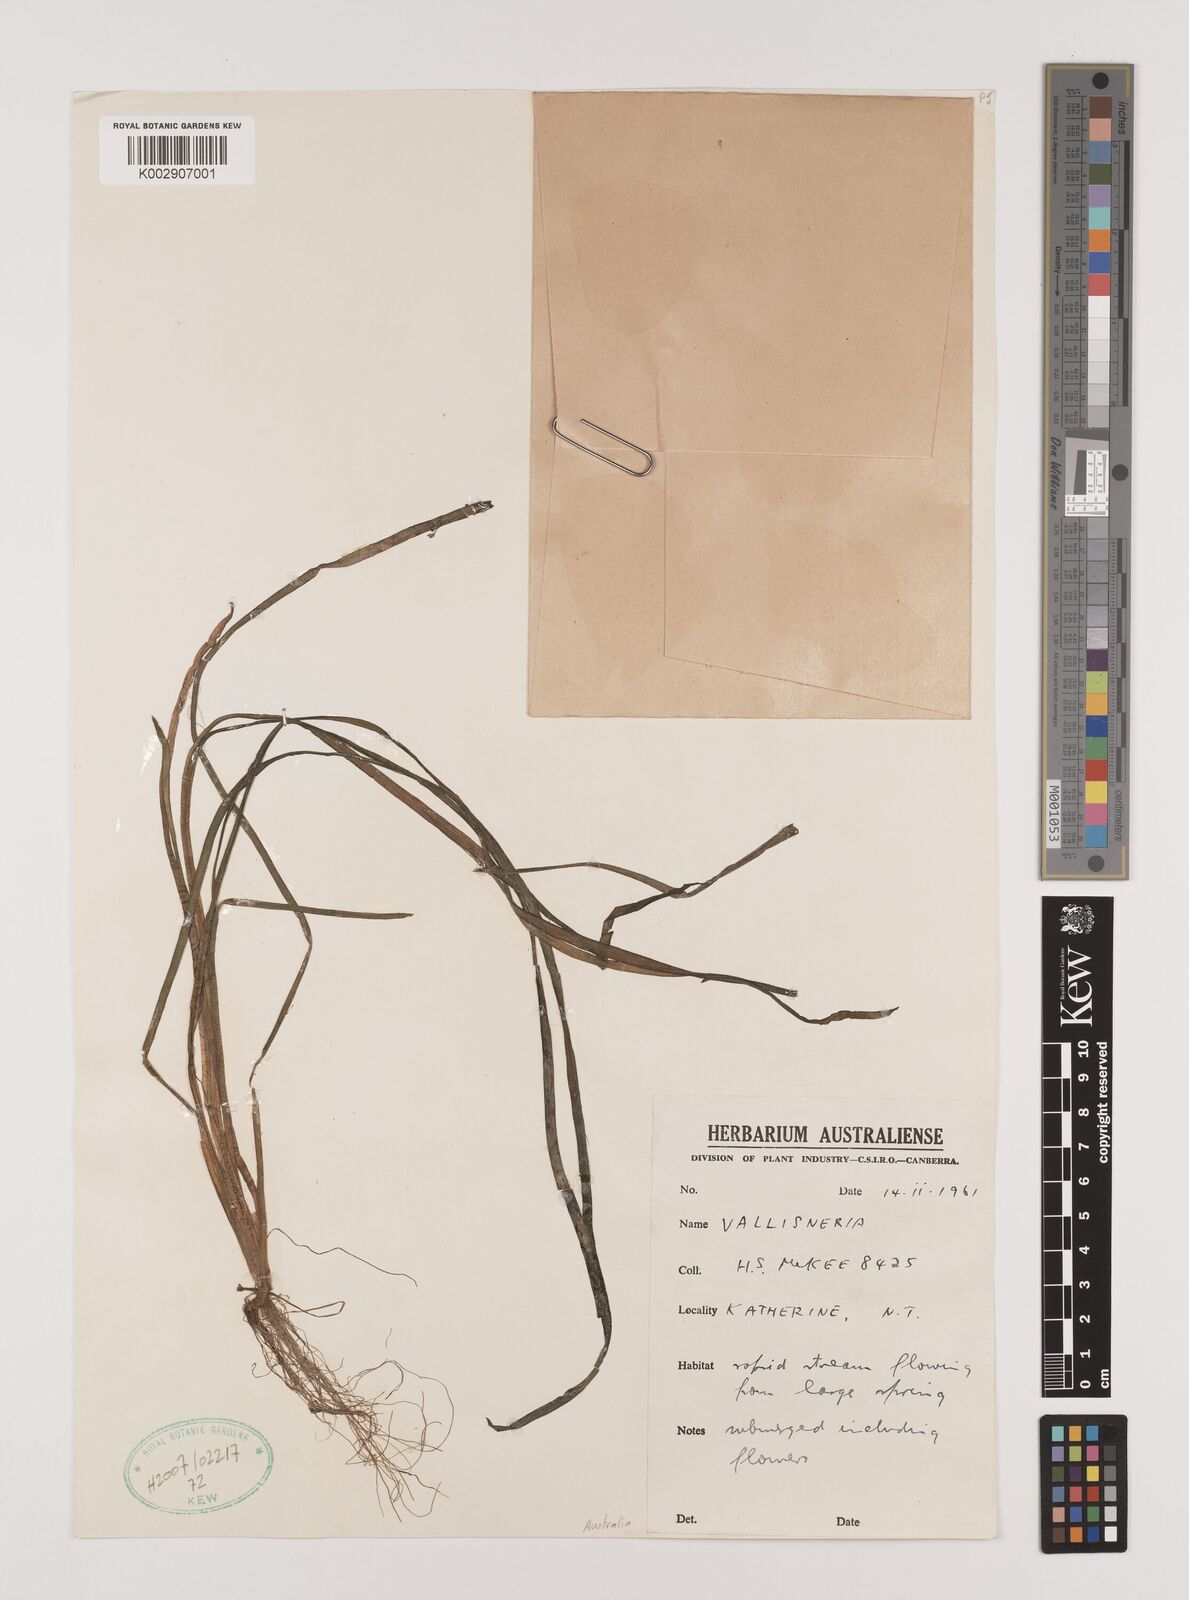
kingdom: Plantae
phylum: Tracheophyta
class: Liliopsida
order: Alismatales
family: Hydrocharitaceae
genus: Vallisneria
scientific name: Vallisneria spiralis
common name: Tapegrass
